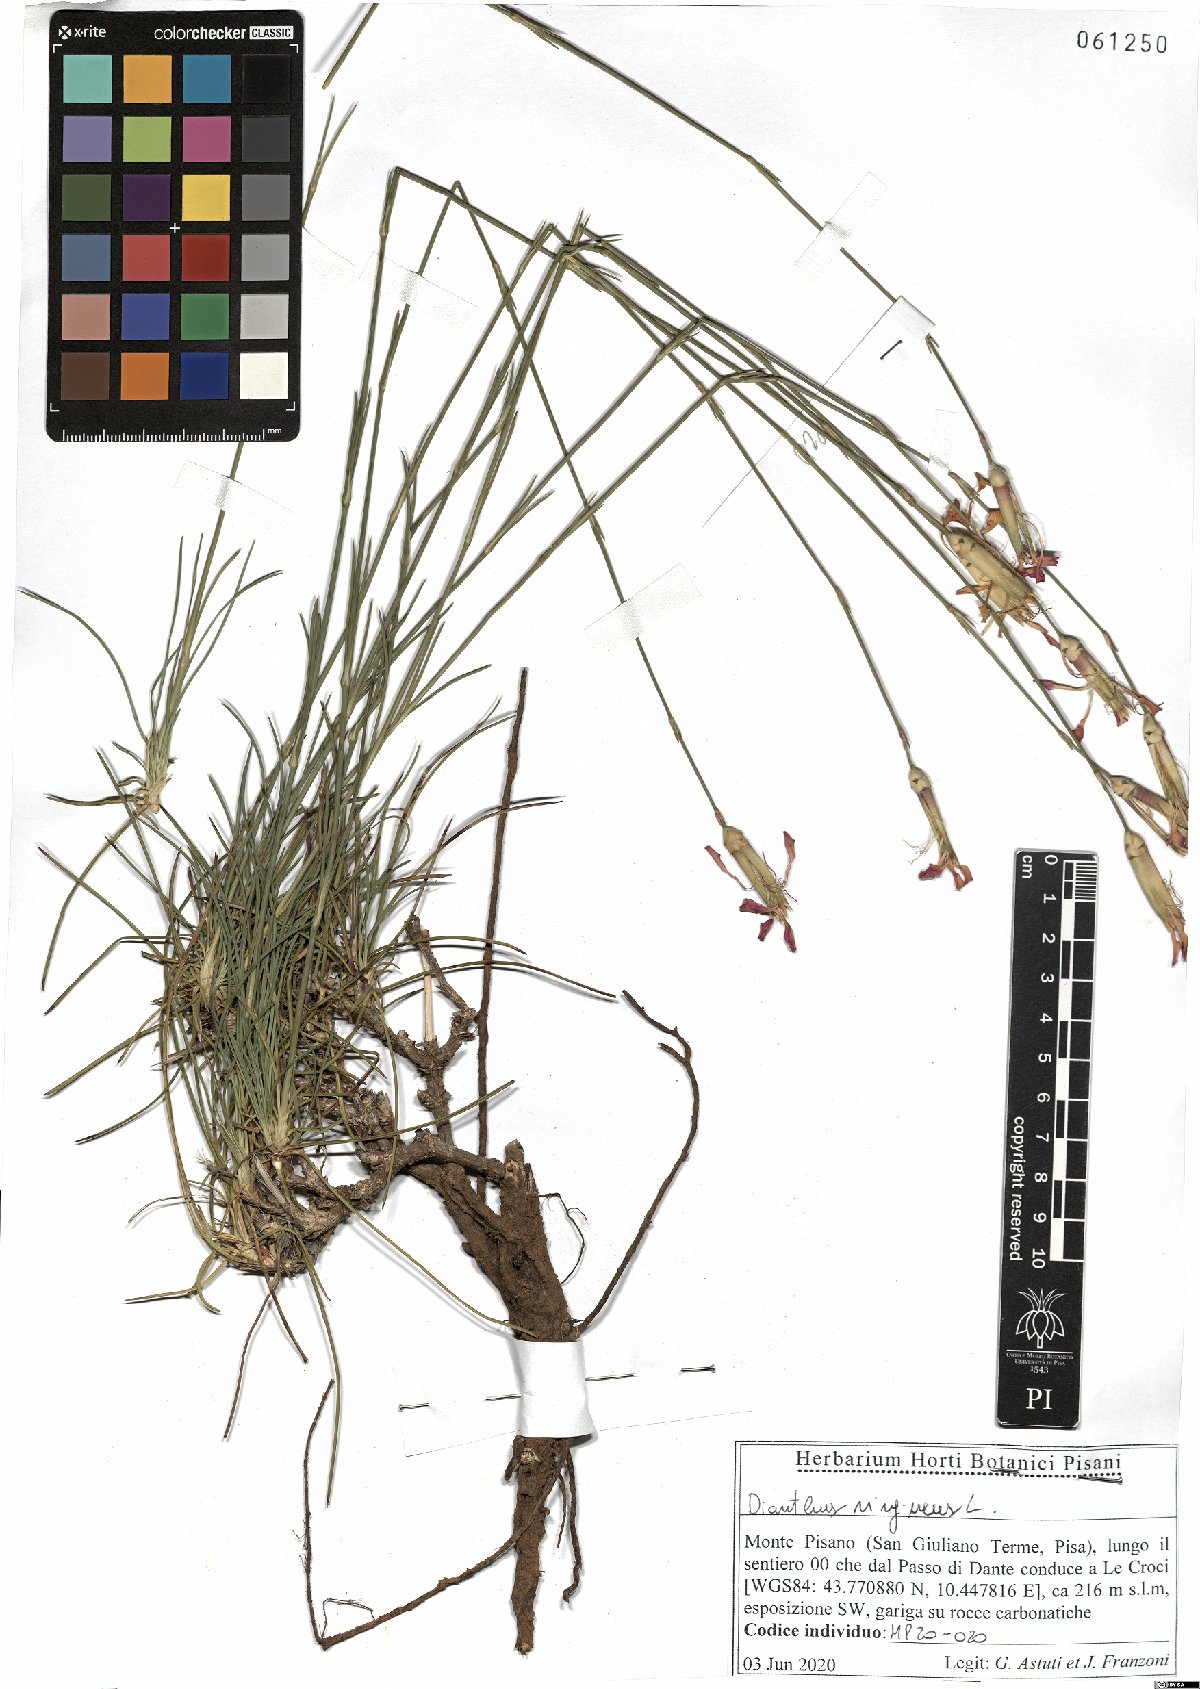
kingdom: Plantae
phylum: Tracheophyta
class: Magnoliopsida
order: Caryophyllales
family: Caryophyllaceae
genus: Dianthus
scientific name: Dianthus virgineus
